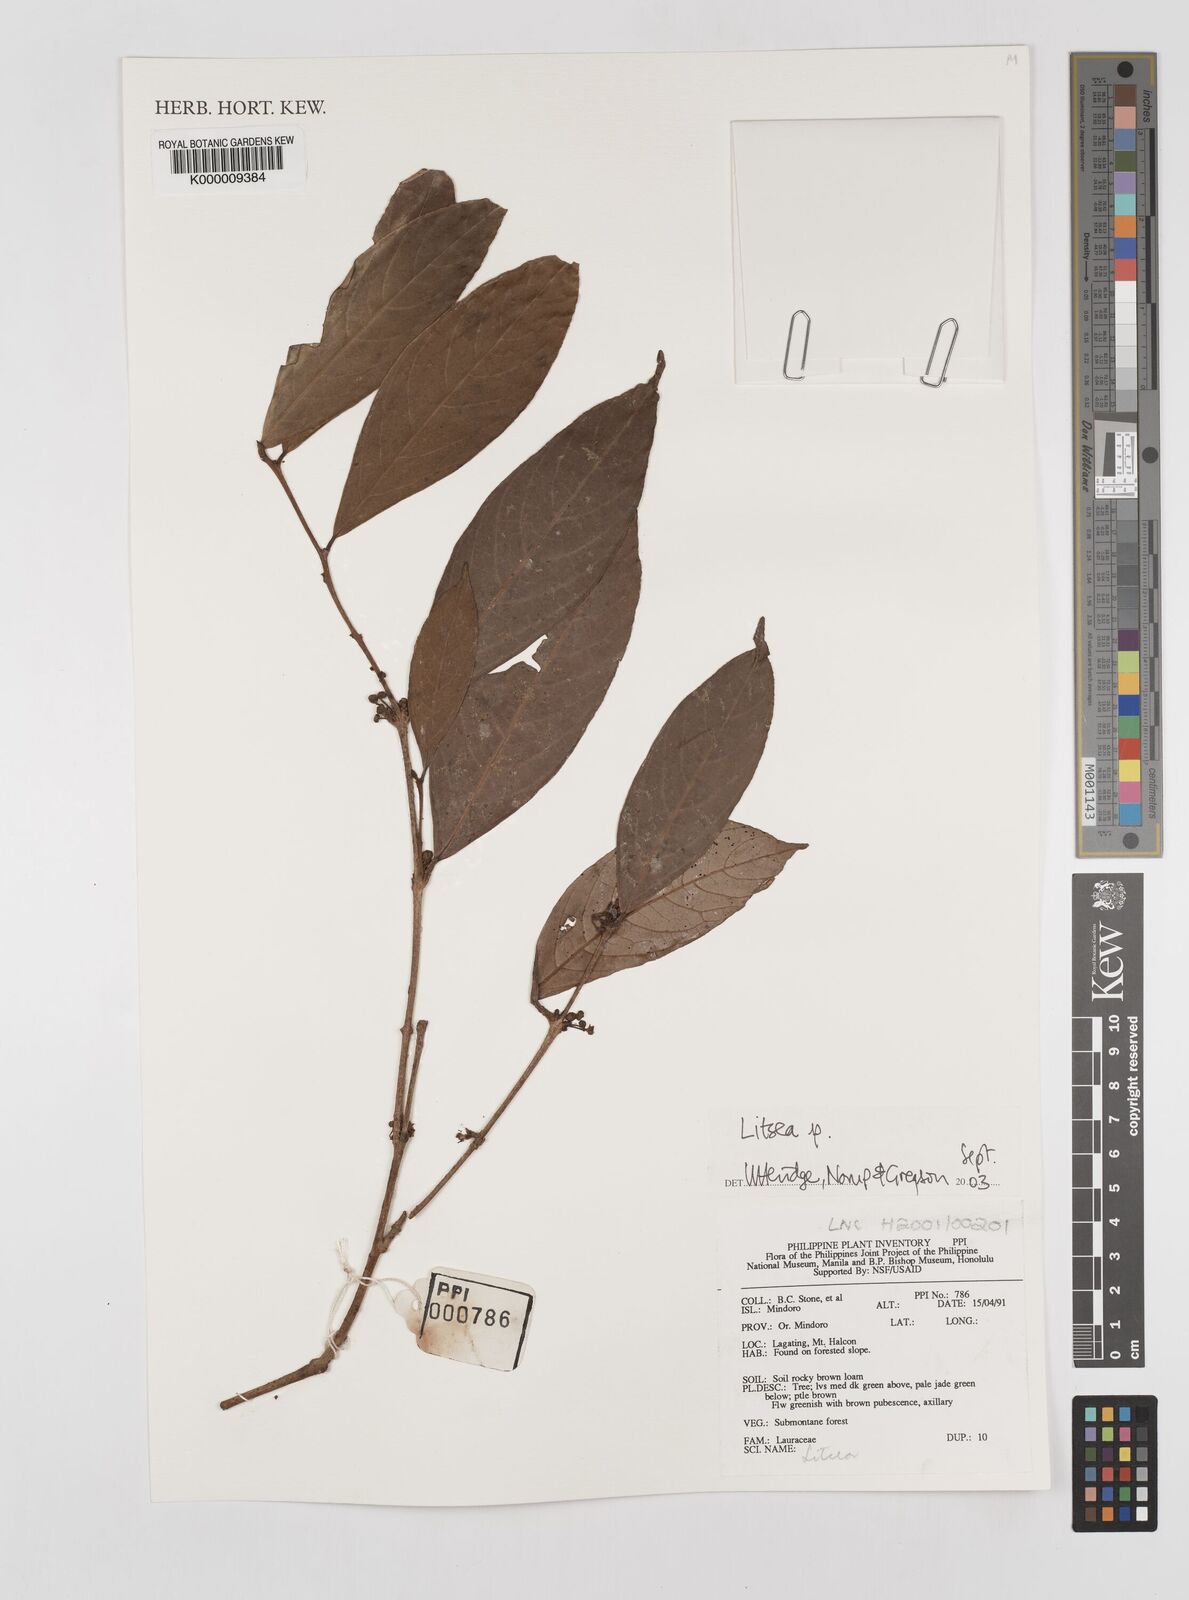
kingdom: Plantae
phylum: Tracheophyta
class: Magnoliopsida
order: Laurales
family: Lauraceae
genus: Litsea
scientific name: Litsea
